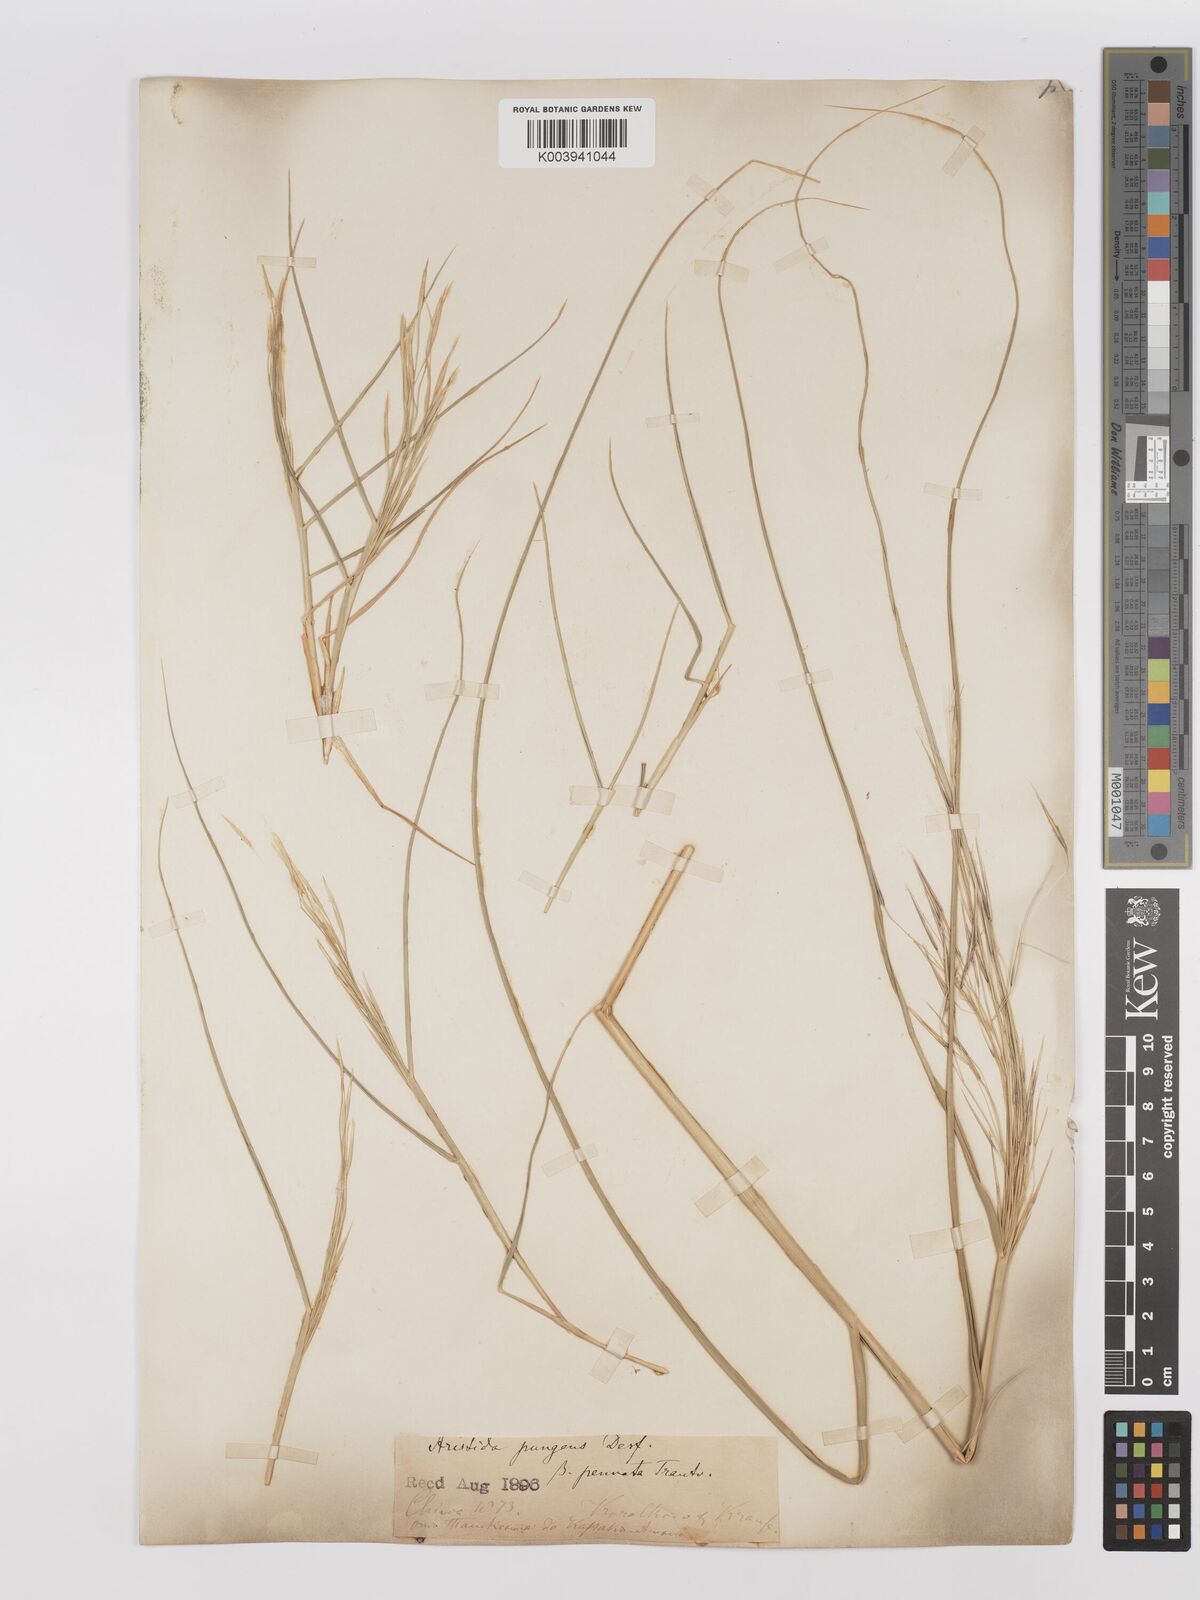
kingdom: Plantae
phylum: Tracheophyta
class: Liliopsida
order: Poales
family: Poaceae
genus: Stipagrostis
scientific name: Stipagrostis pungens
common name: Three-awn grass
